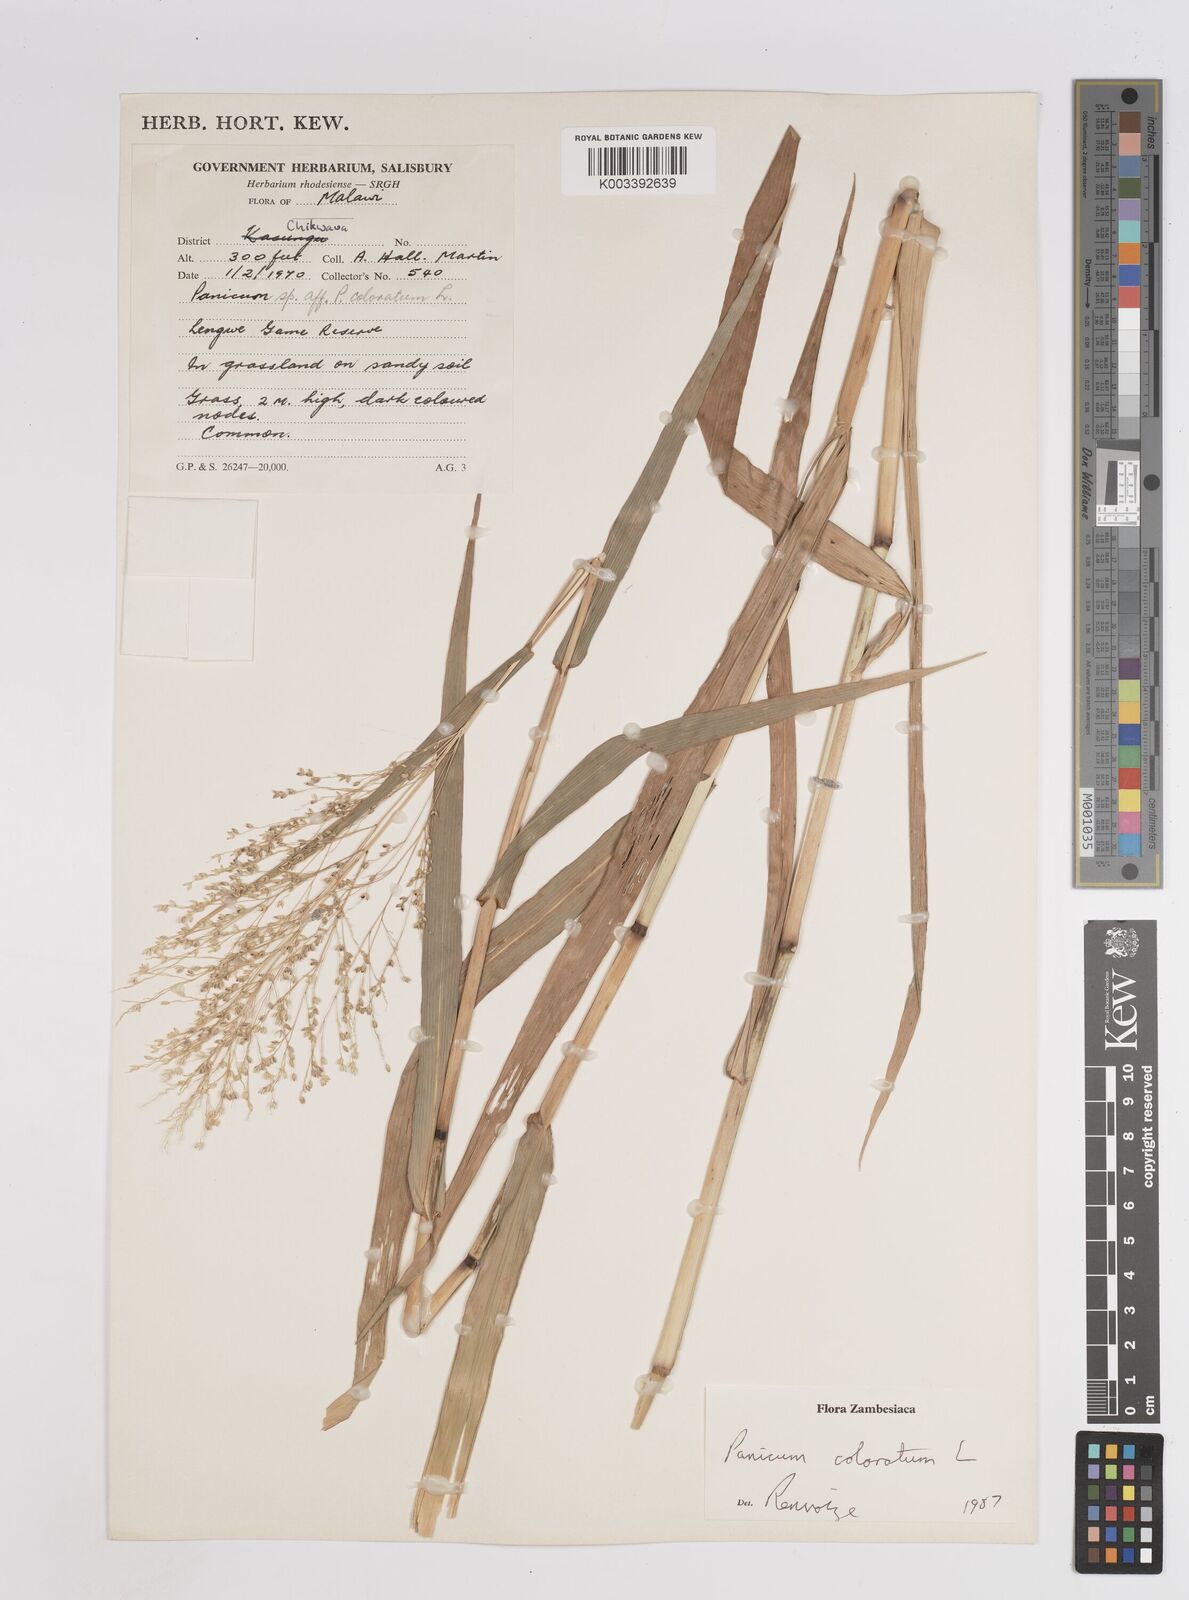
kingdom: Plantae
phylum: Tracheophyta
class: Liliopsida
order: Poales
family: Poaceae
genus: Panicum
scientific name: Panicum
